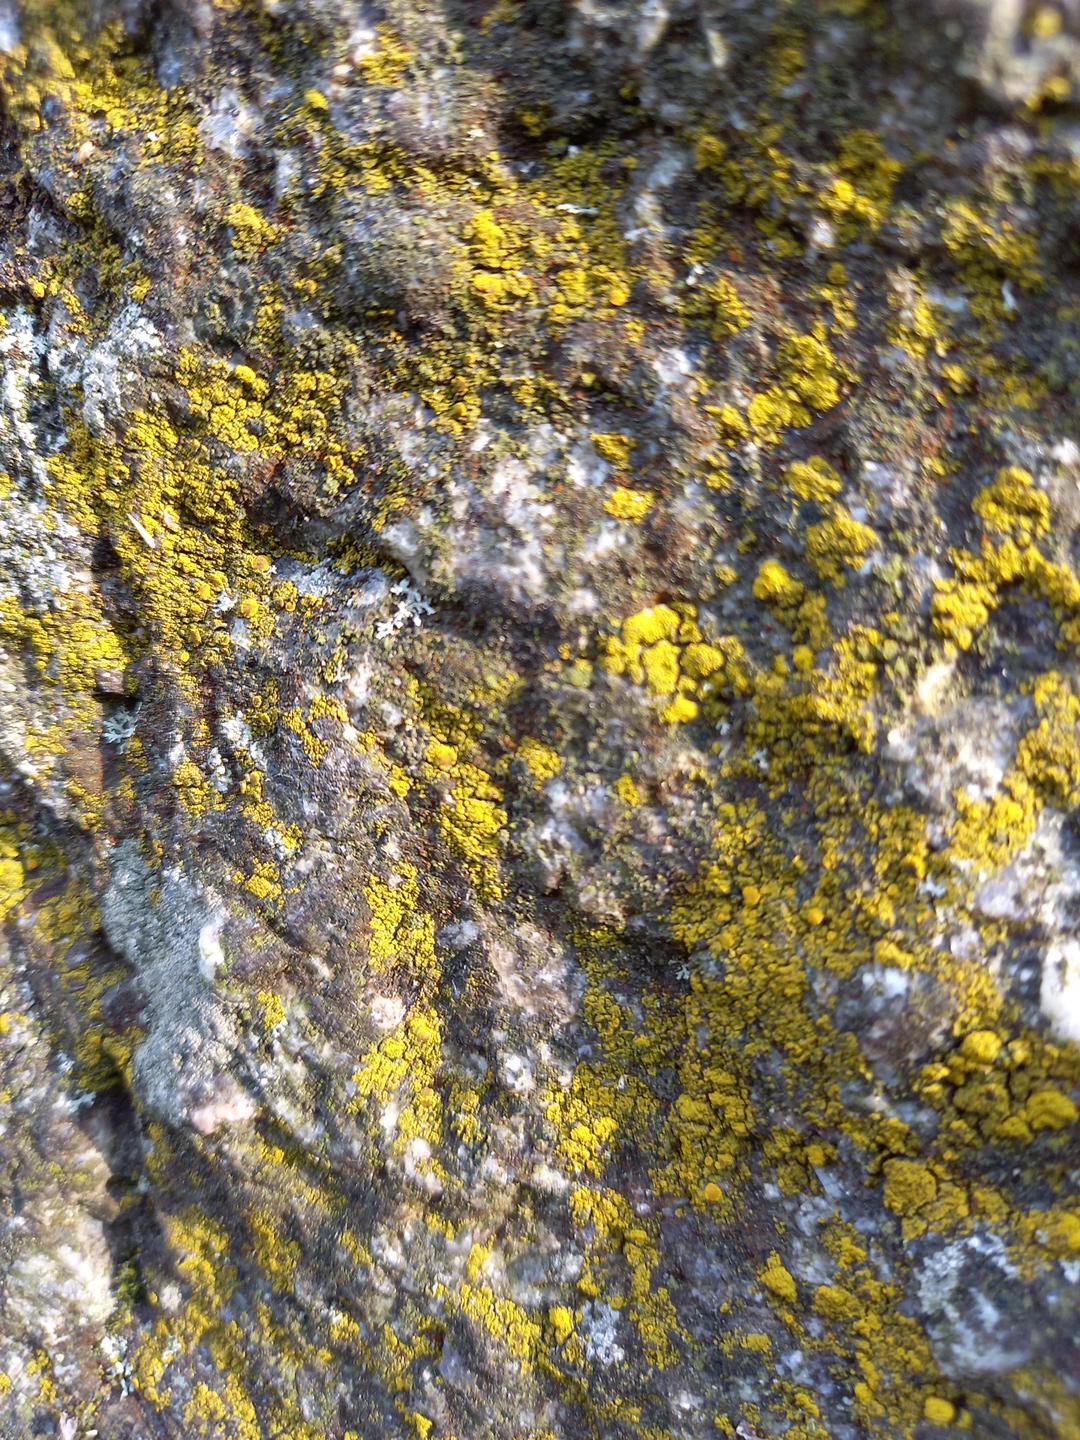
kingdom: Fungi
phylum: Ascomycota
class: Candelariomycetes
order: Candelariales
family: Candelariaceae
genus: Candelariella
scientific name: Candelariella vitellina
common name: almindelig æggeblommelav
